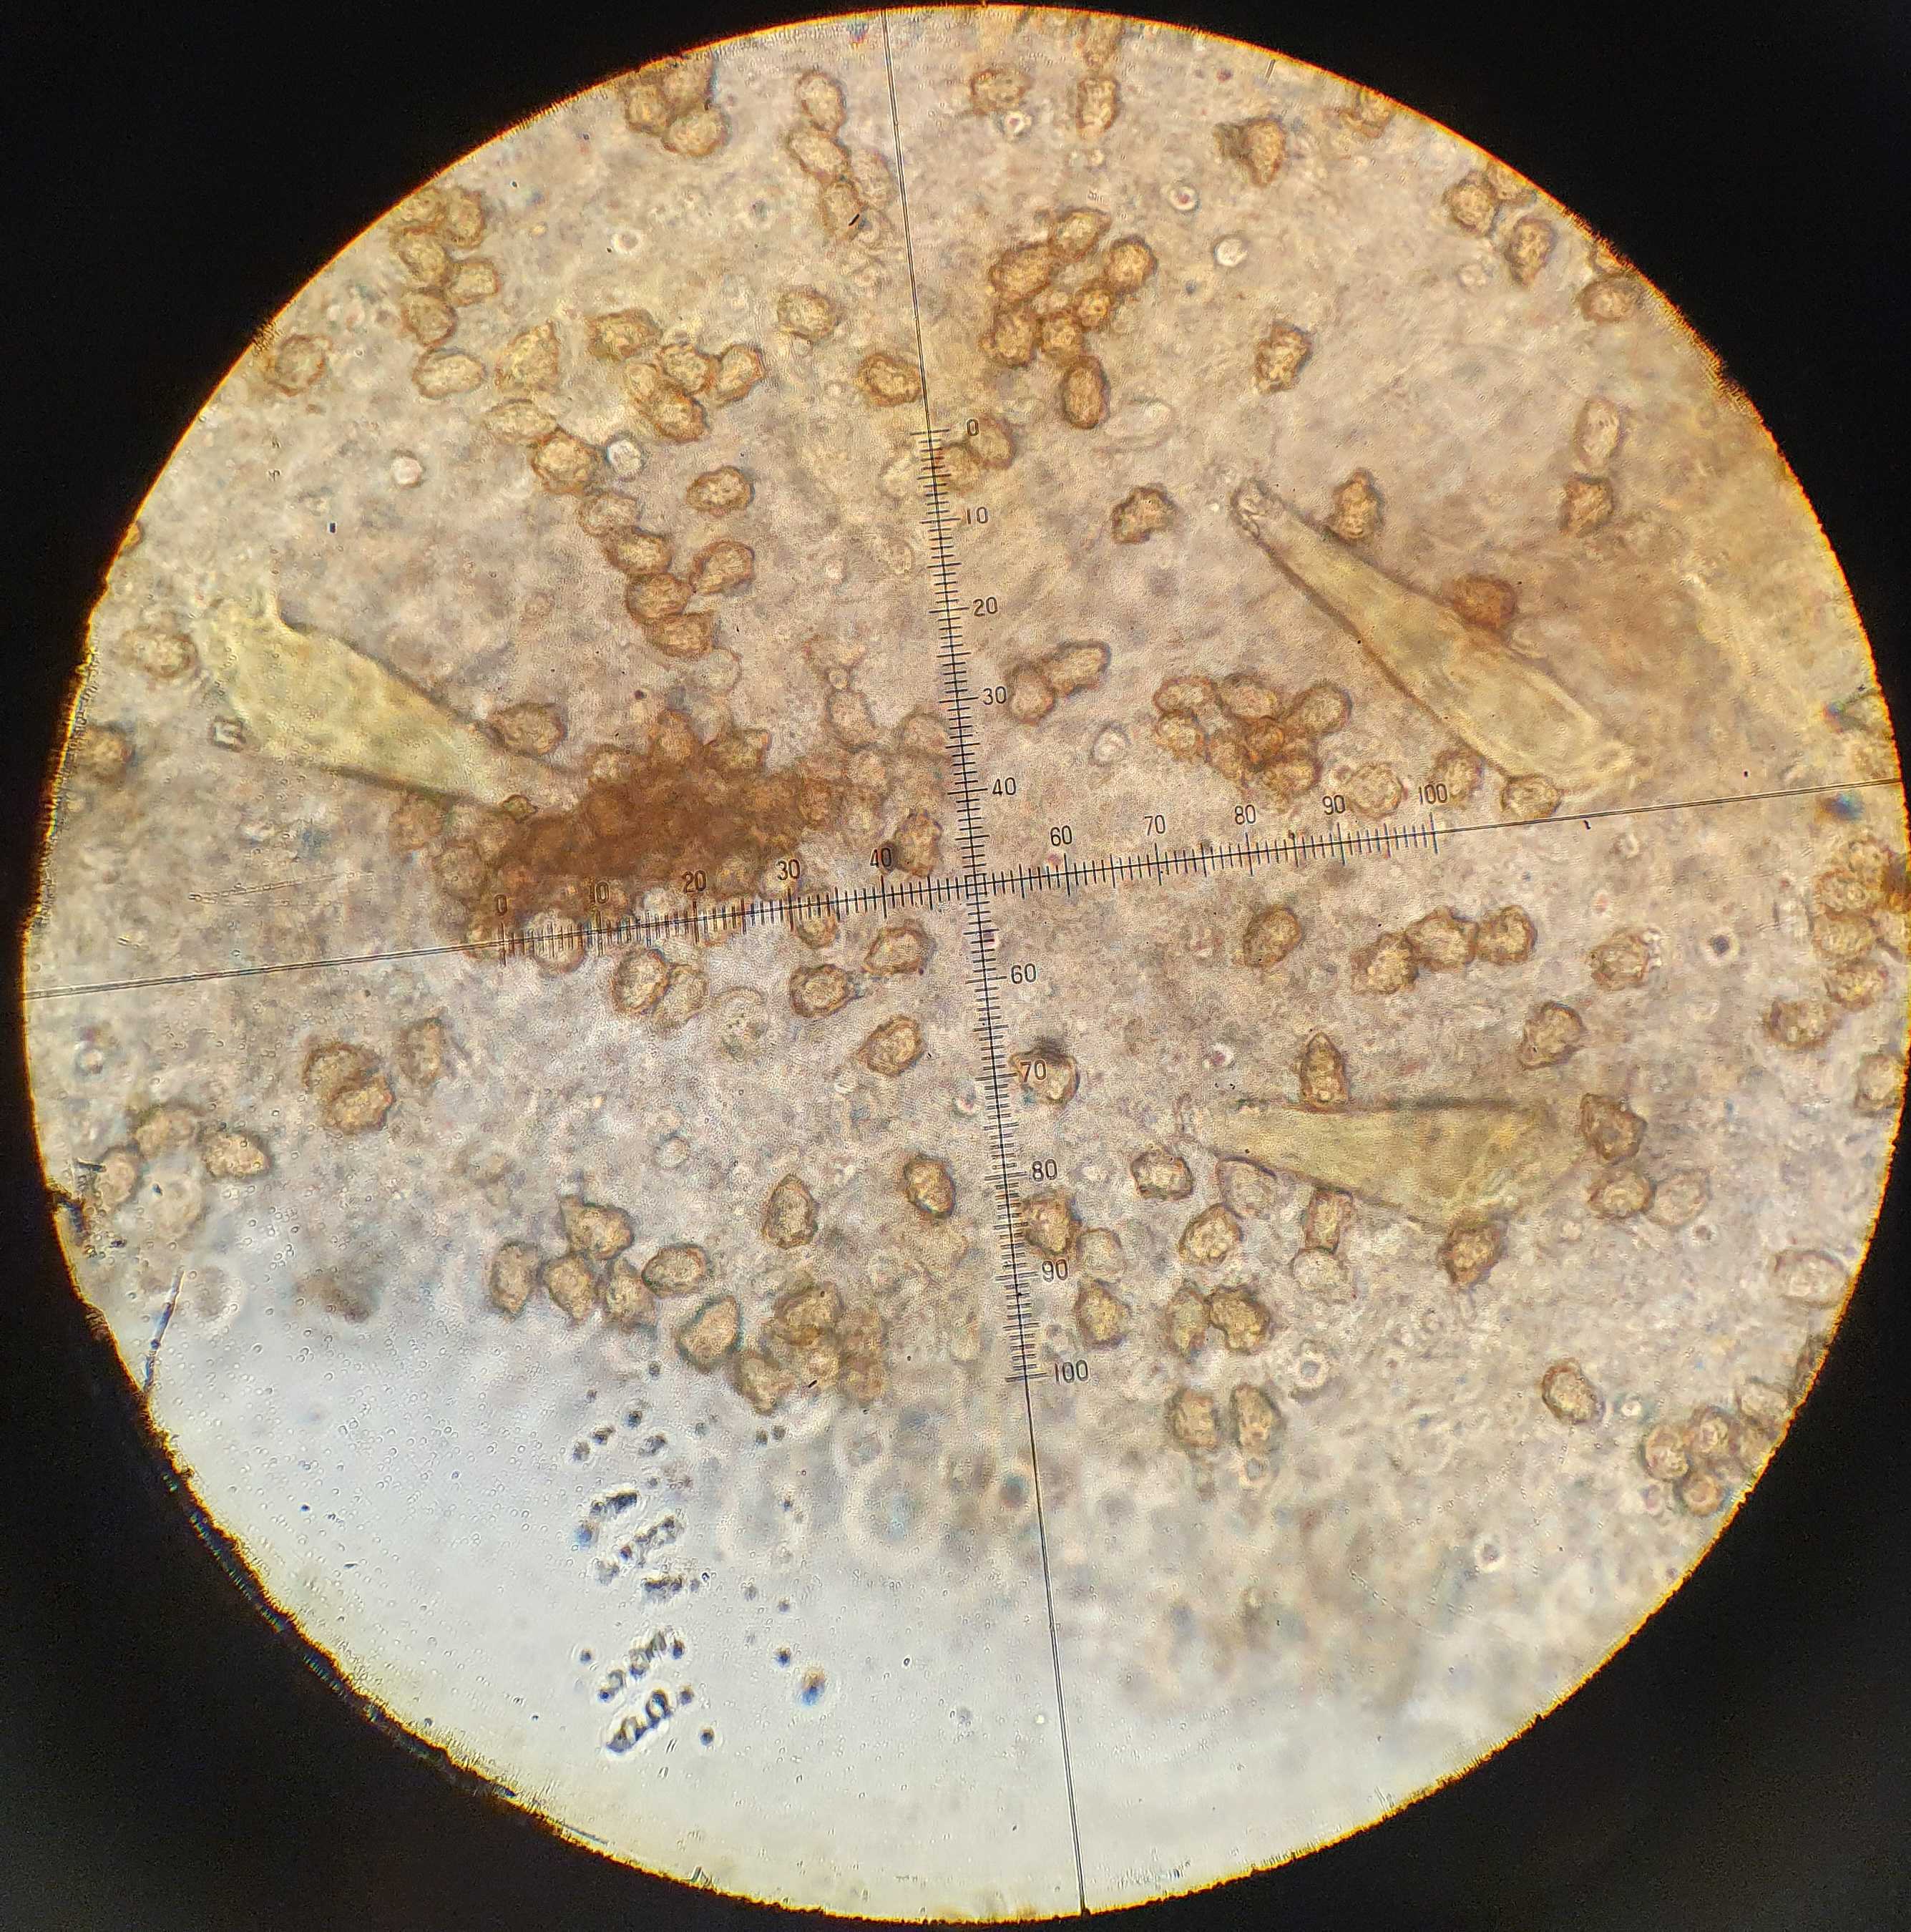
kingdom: Fungi
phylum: Basidiomycota
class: Agaricomycetes
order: Agaricales
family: Inocybaceae
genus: Inocybe
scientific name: Inocybe petiginosa
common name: liden trævlhat
